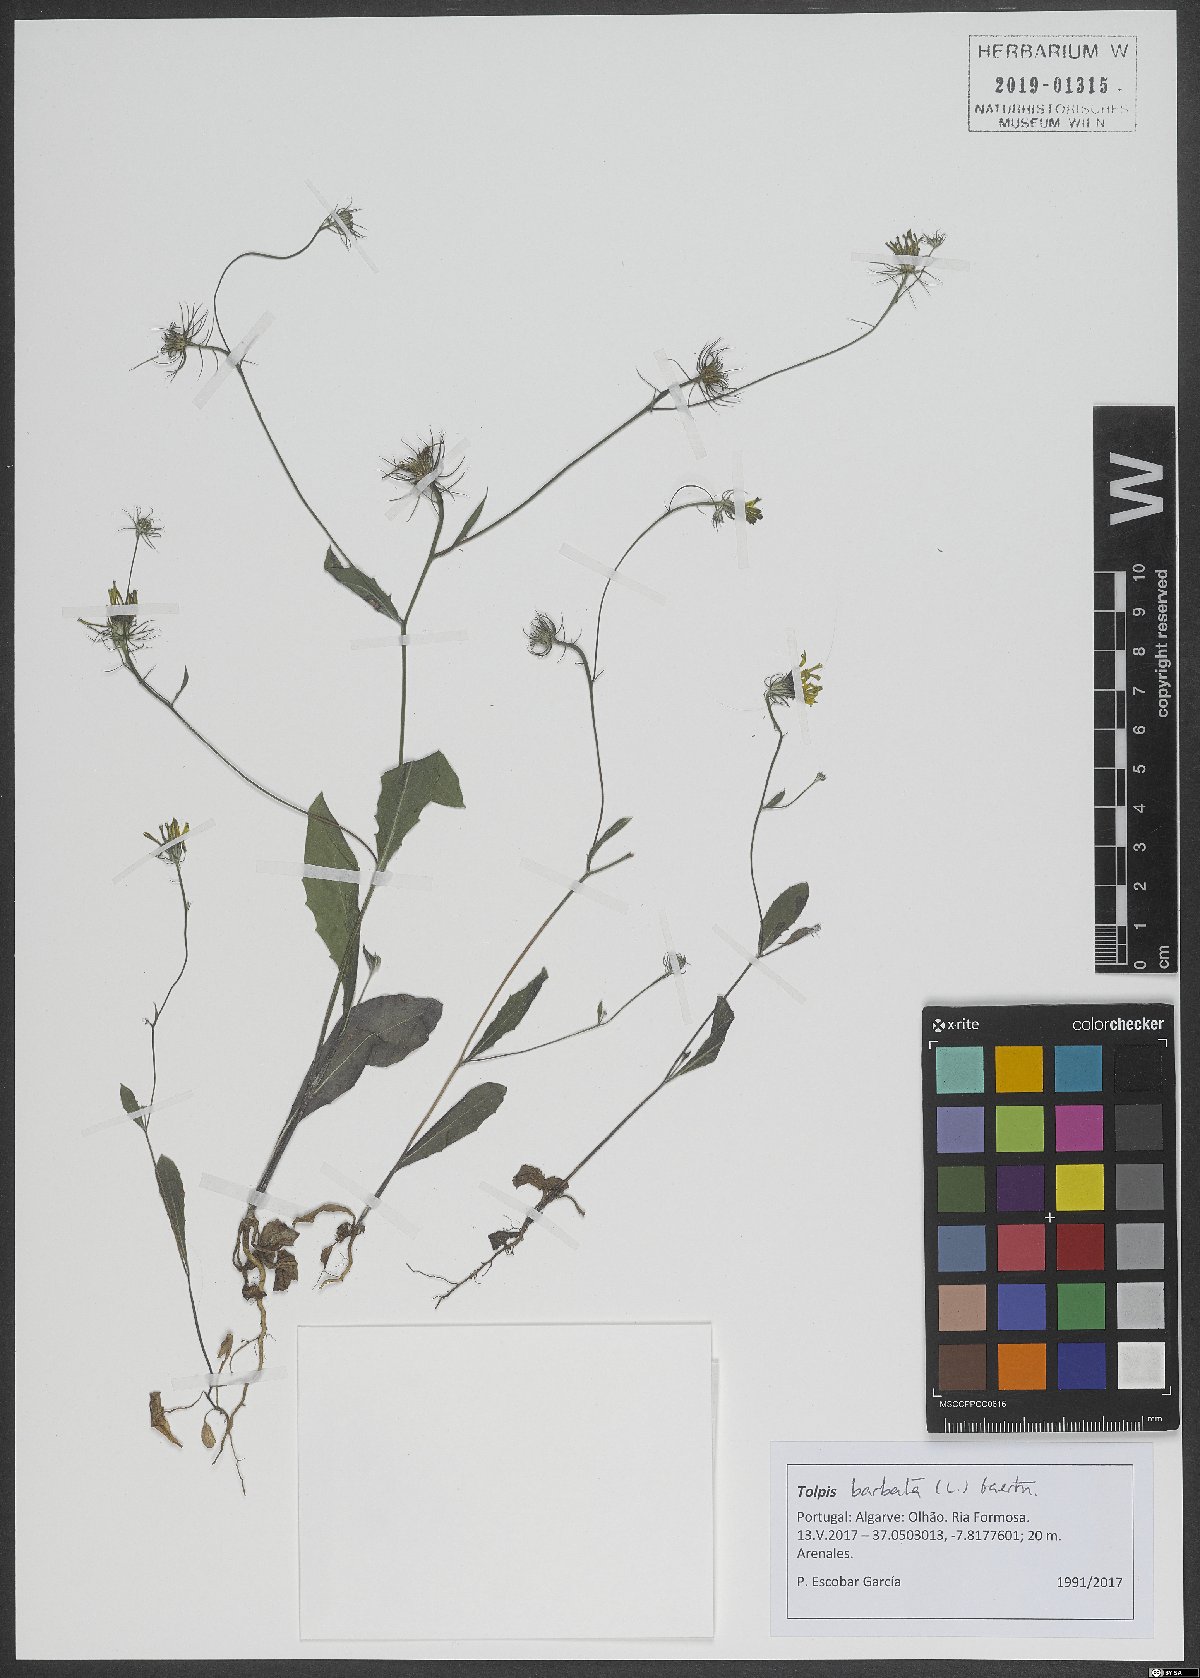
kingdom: Plantae
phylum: Tracheophyta
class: Magnoliopsida
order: Asterales
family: Asteraceae
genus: Tolpis
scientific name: Tolpis barbata
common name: Yellow hawkweed
